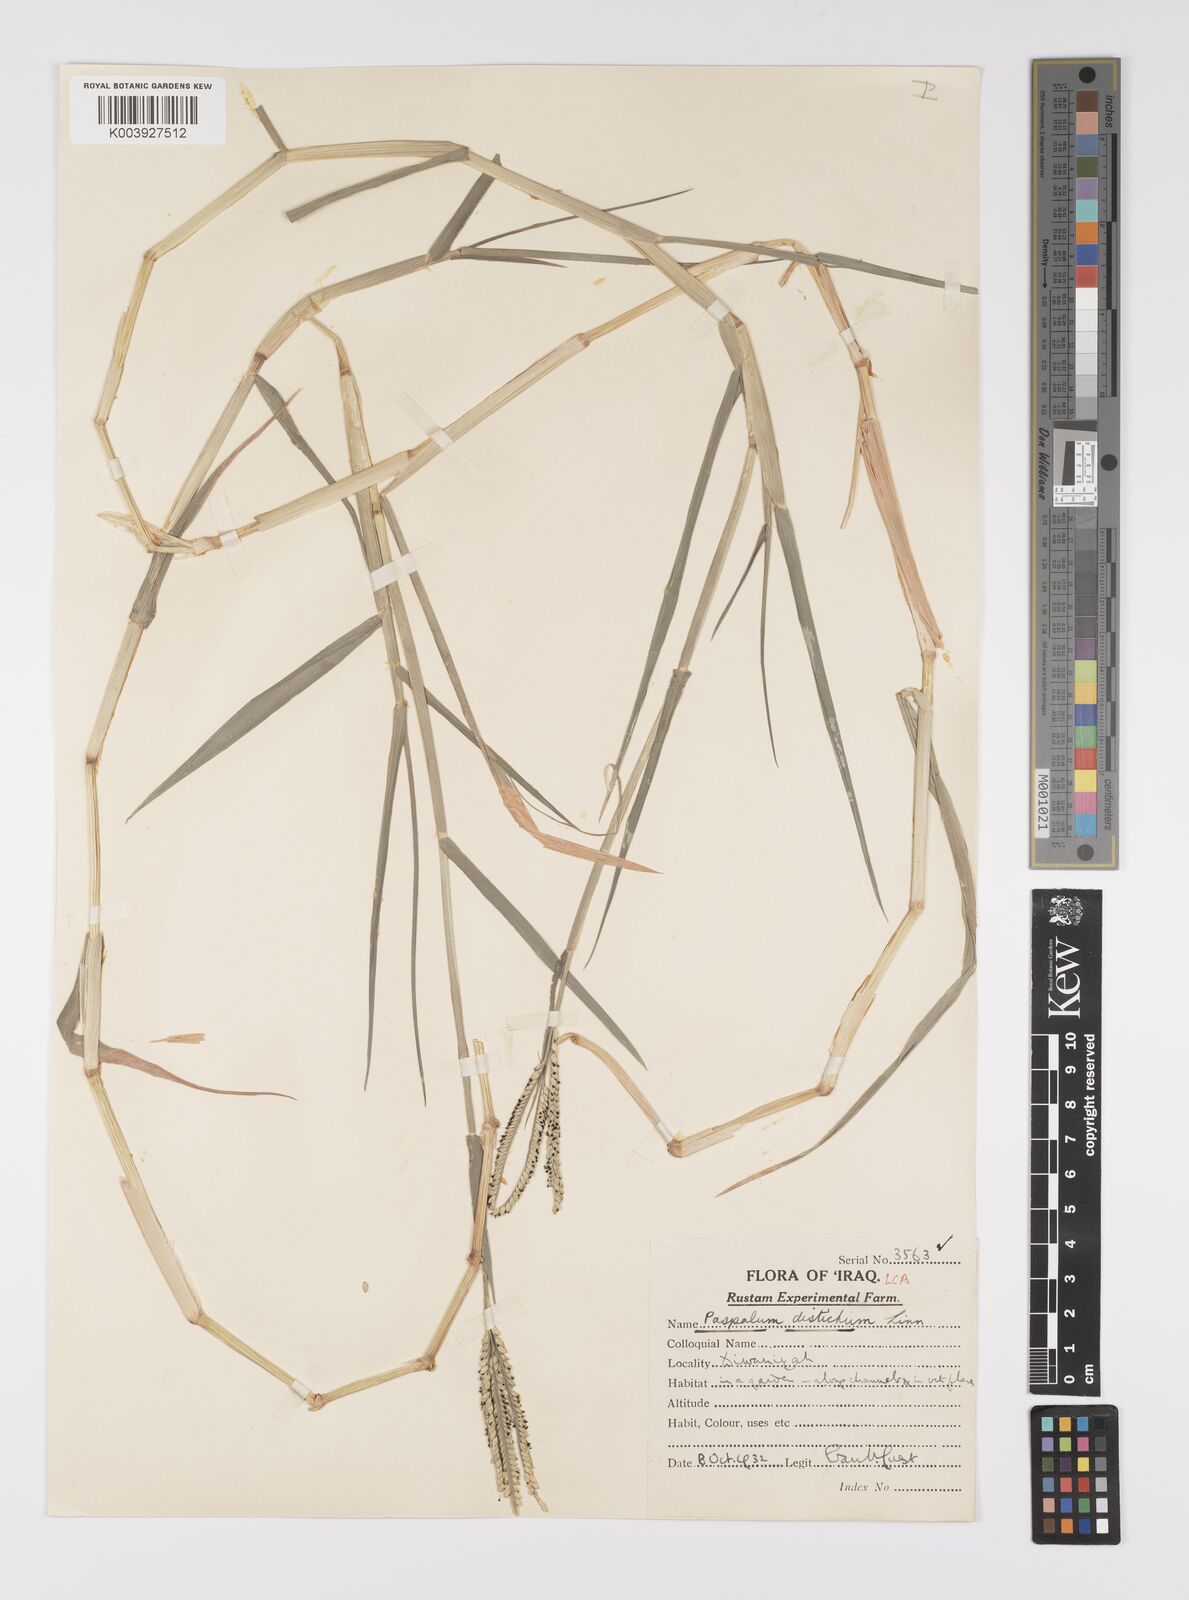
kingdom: Plantae
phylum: Tracheophyta
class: Liliopsida
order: Poales
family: Poaceae
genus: Paspalum
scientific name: Paspalum distichum
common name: Knotgrass
